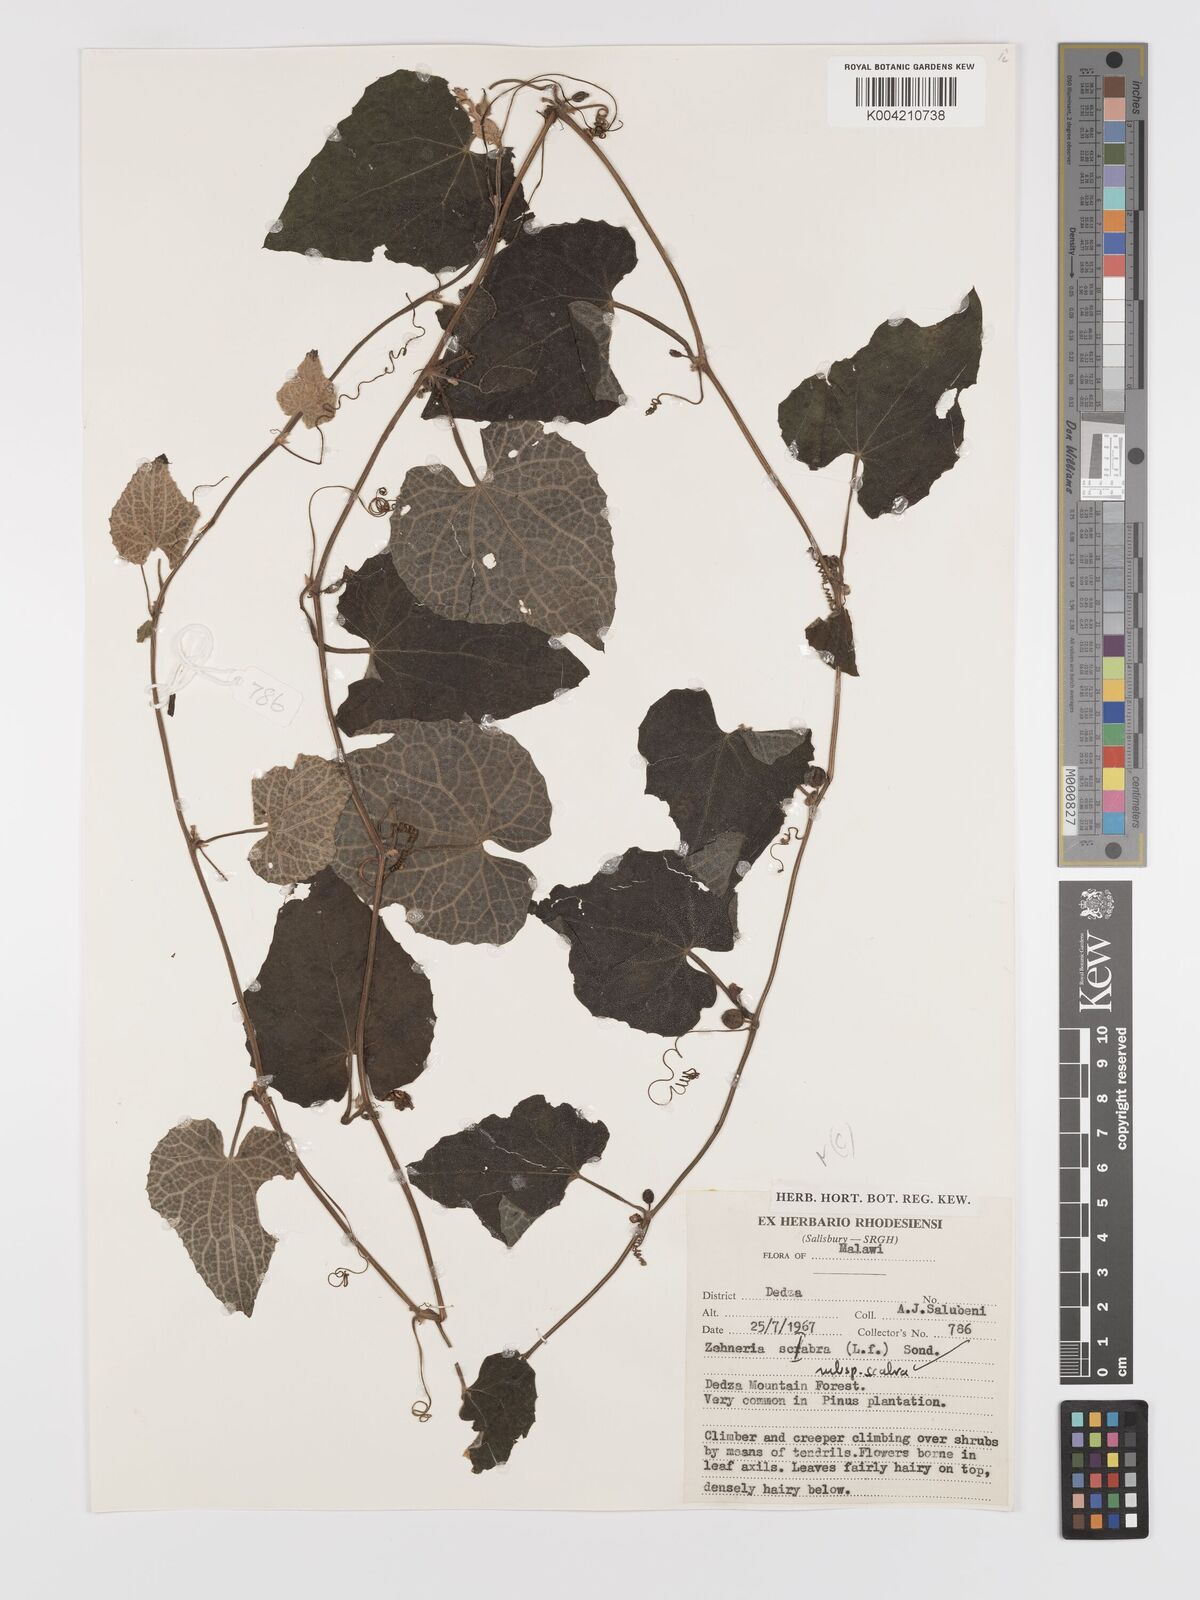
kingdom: Plantae
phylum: Tracheophyta
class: Magnoliopsida
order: Cucurbitales
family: Cucurbitaceae
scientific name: Cucurbitaceae
